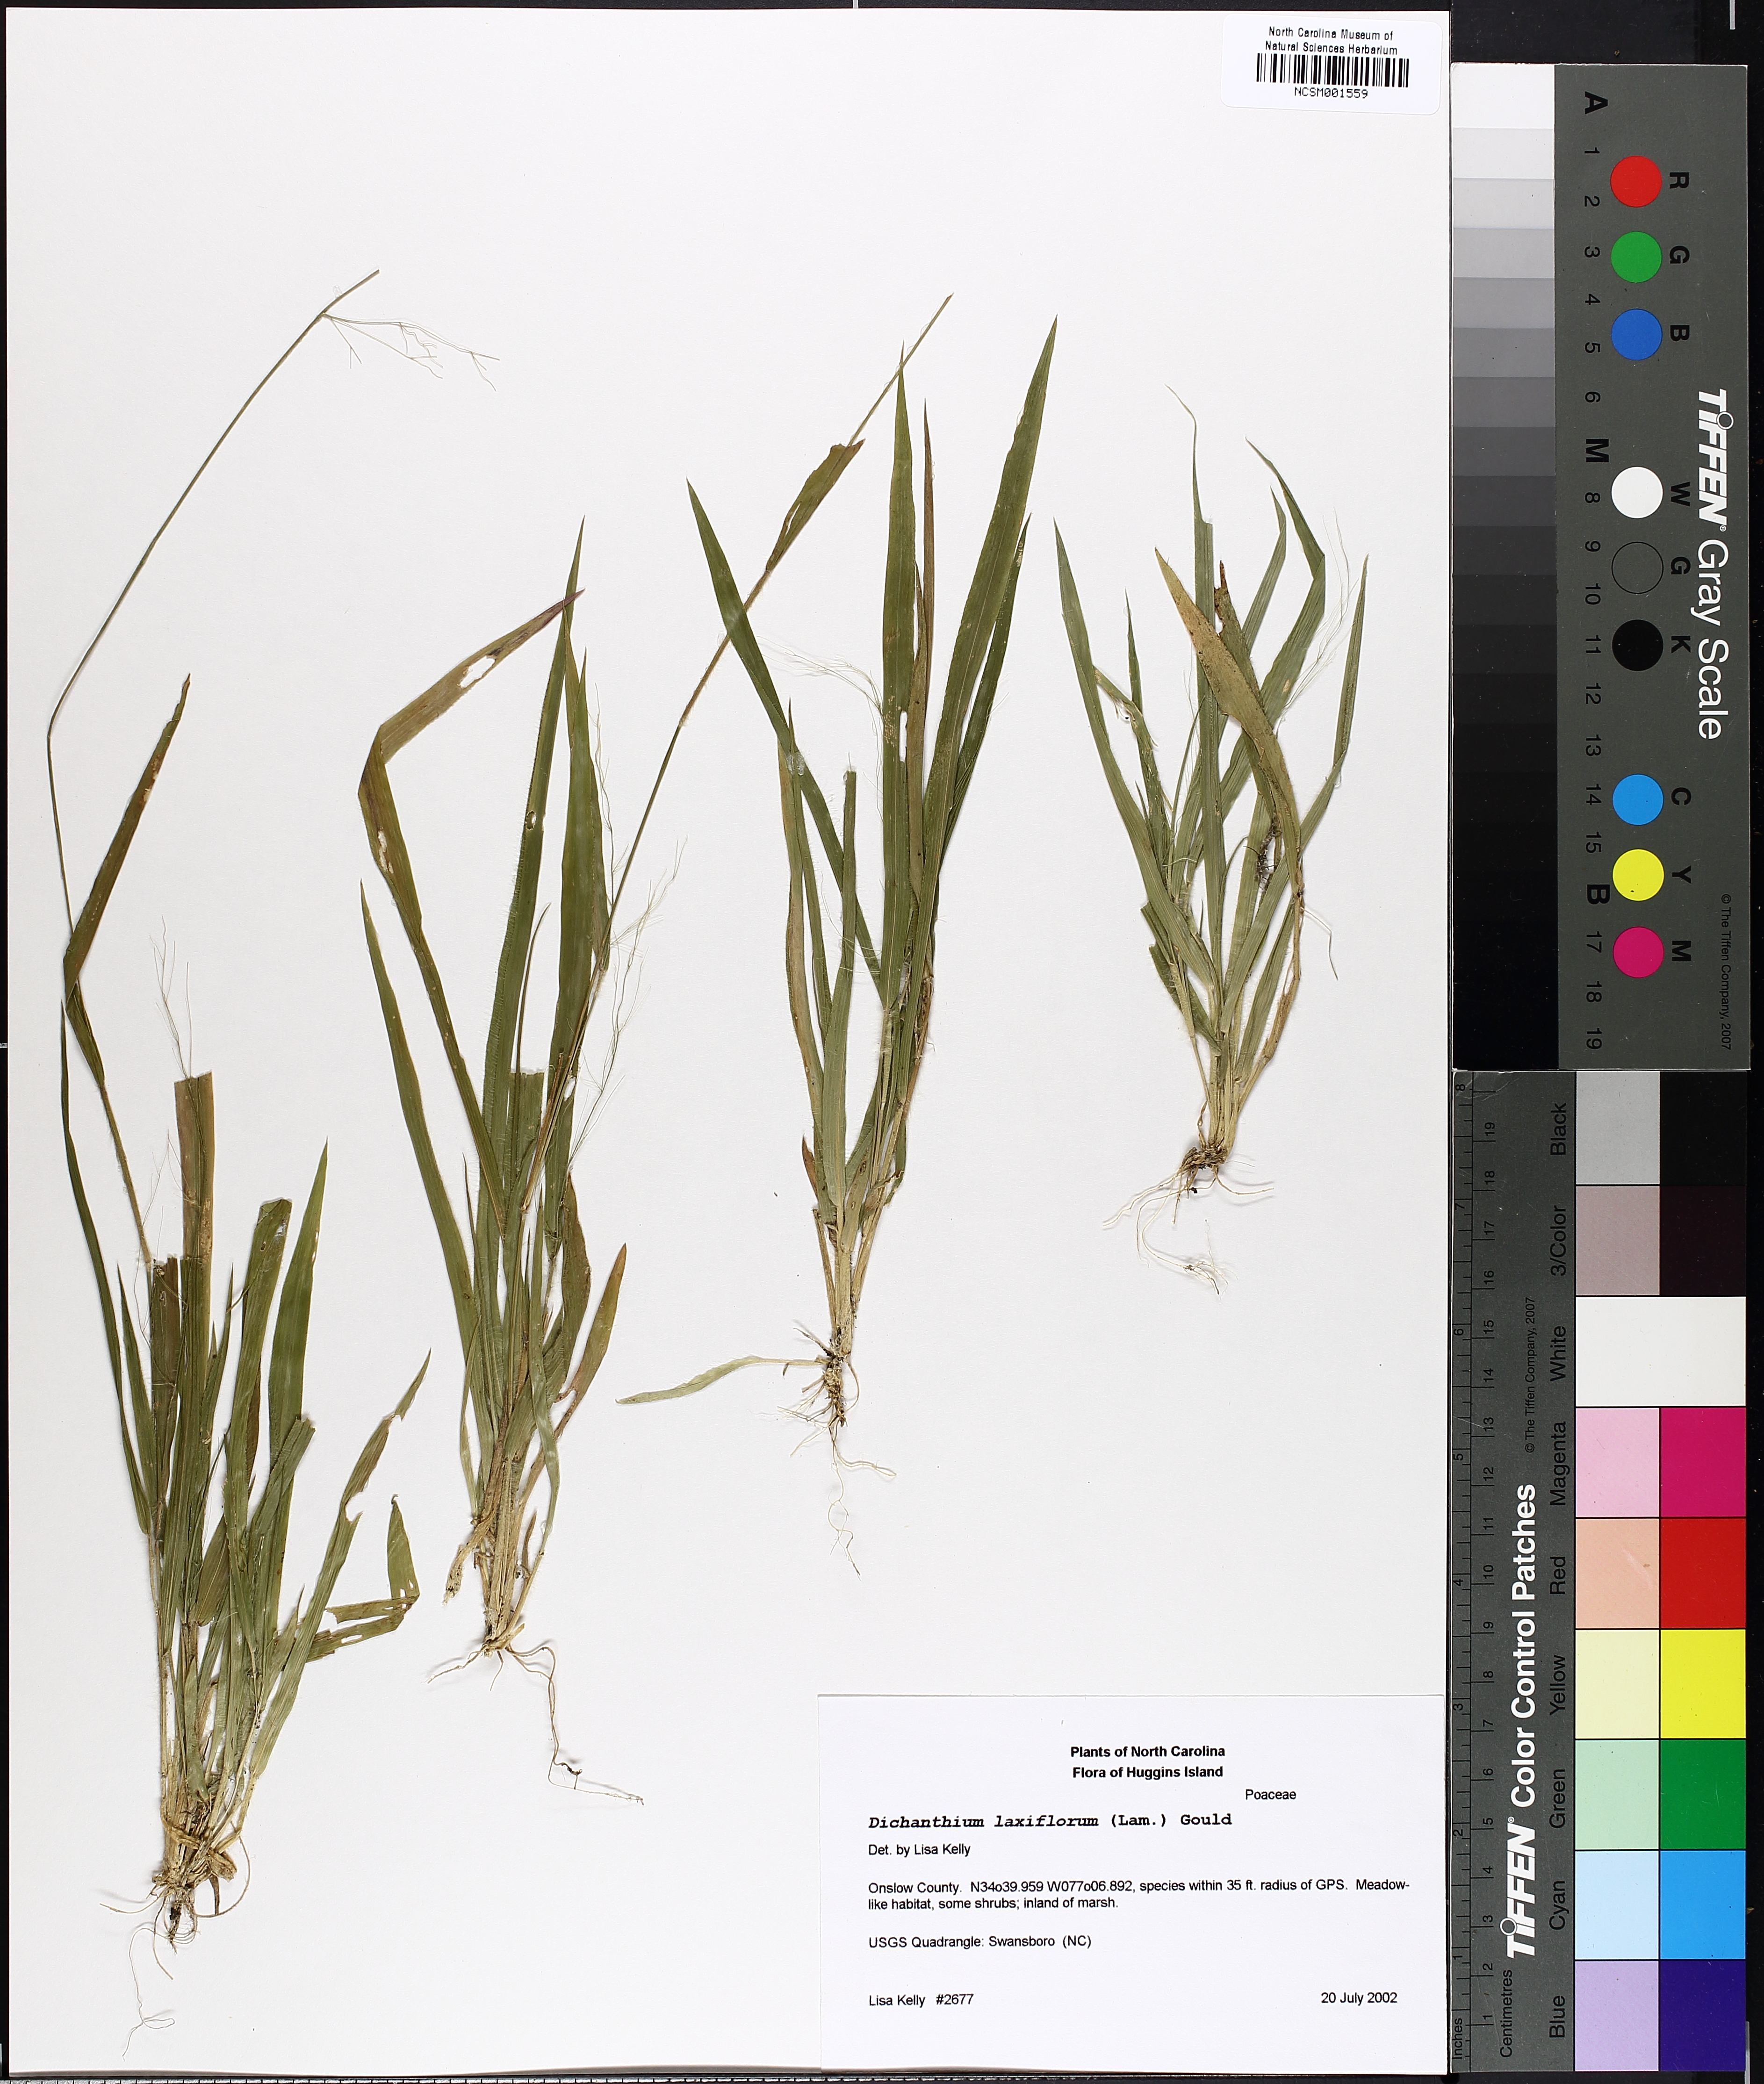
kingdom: Plantae
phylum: Tracheophyta
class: Liliopsida
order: Poales
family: Poaceae
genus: Dichanthelium
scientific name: Dichanthelium laxiflorum
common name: Soft-tuft panic grass
